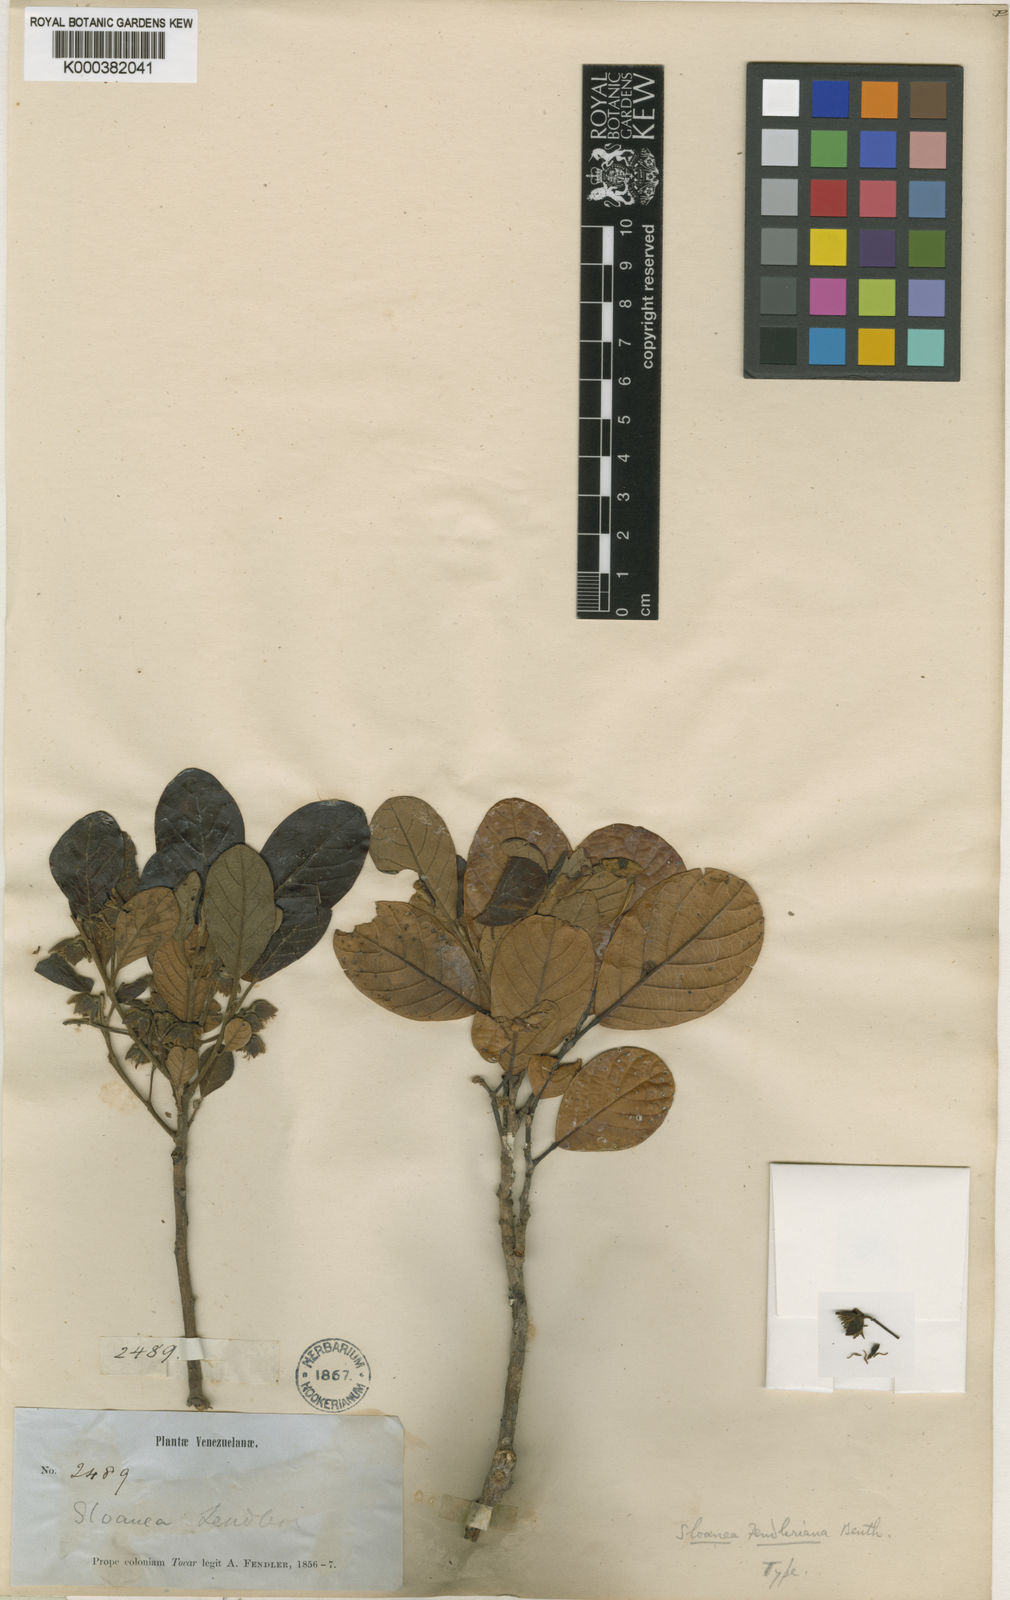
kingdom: Plantae
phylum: Tracheophyta
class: Magnoliopsida
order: Oxalidales
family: Elaeocarpaceae
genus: Sloanea
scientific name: Sloanea fendleriana
